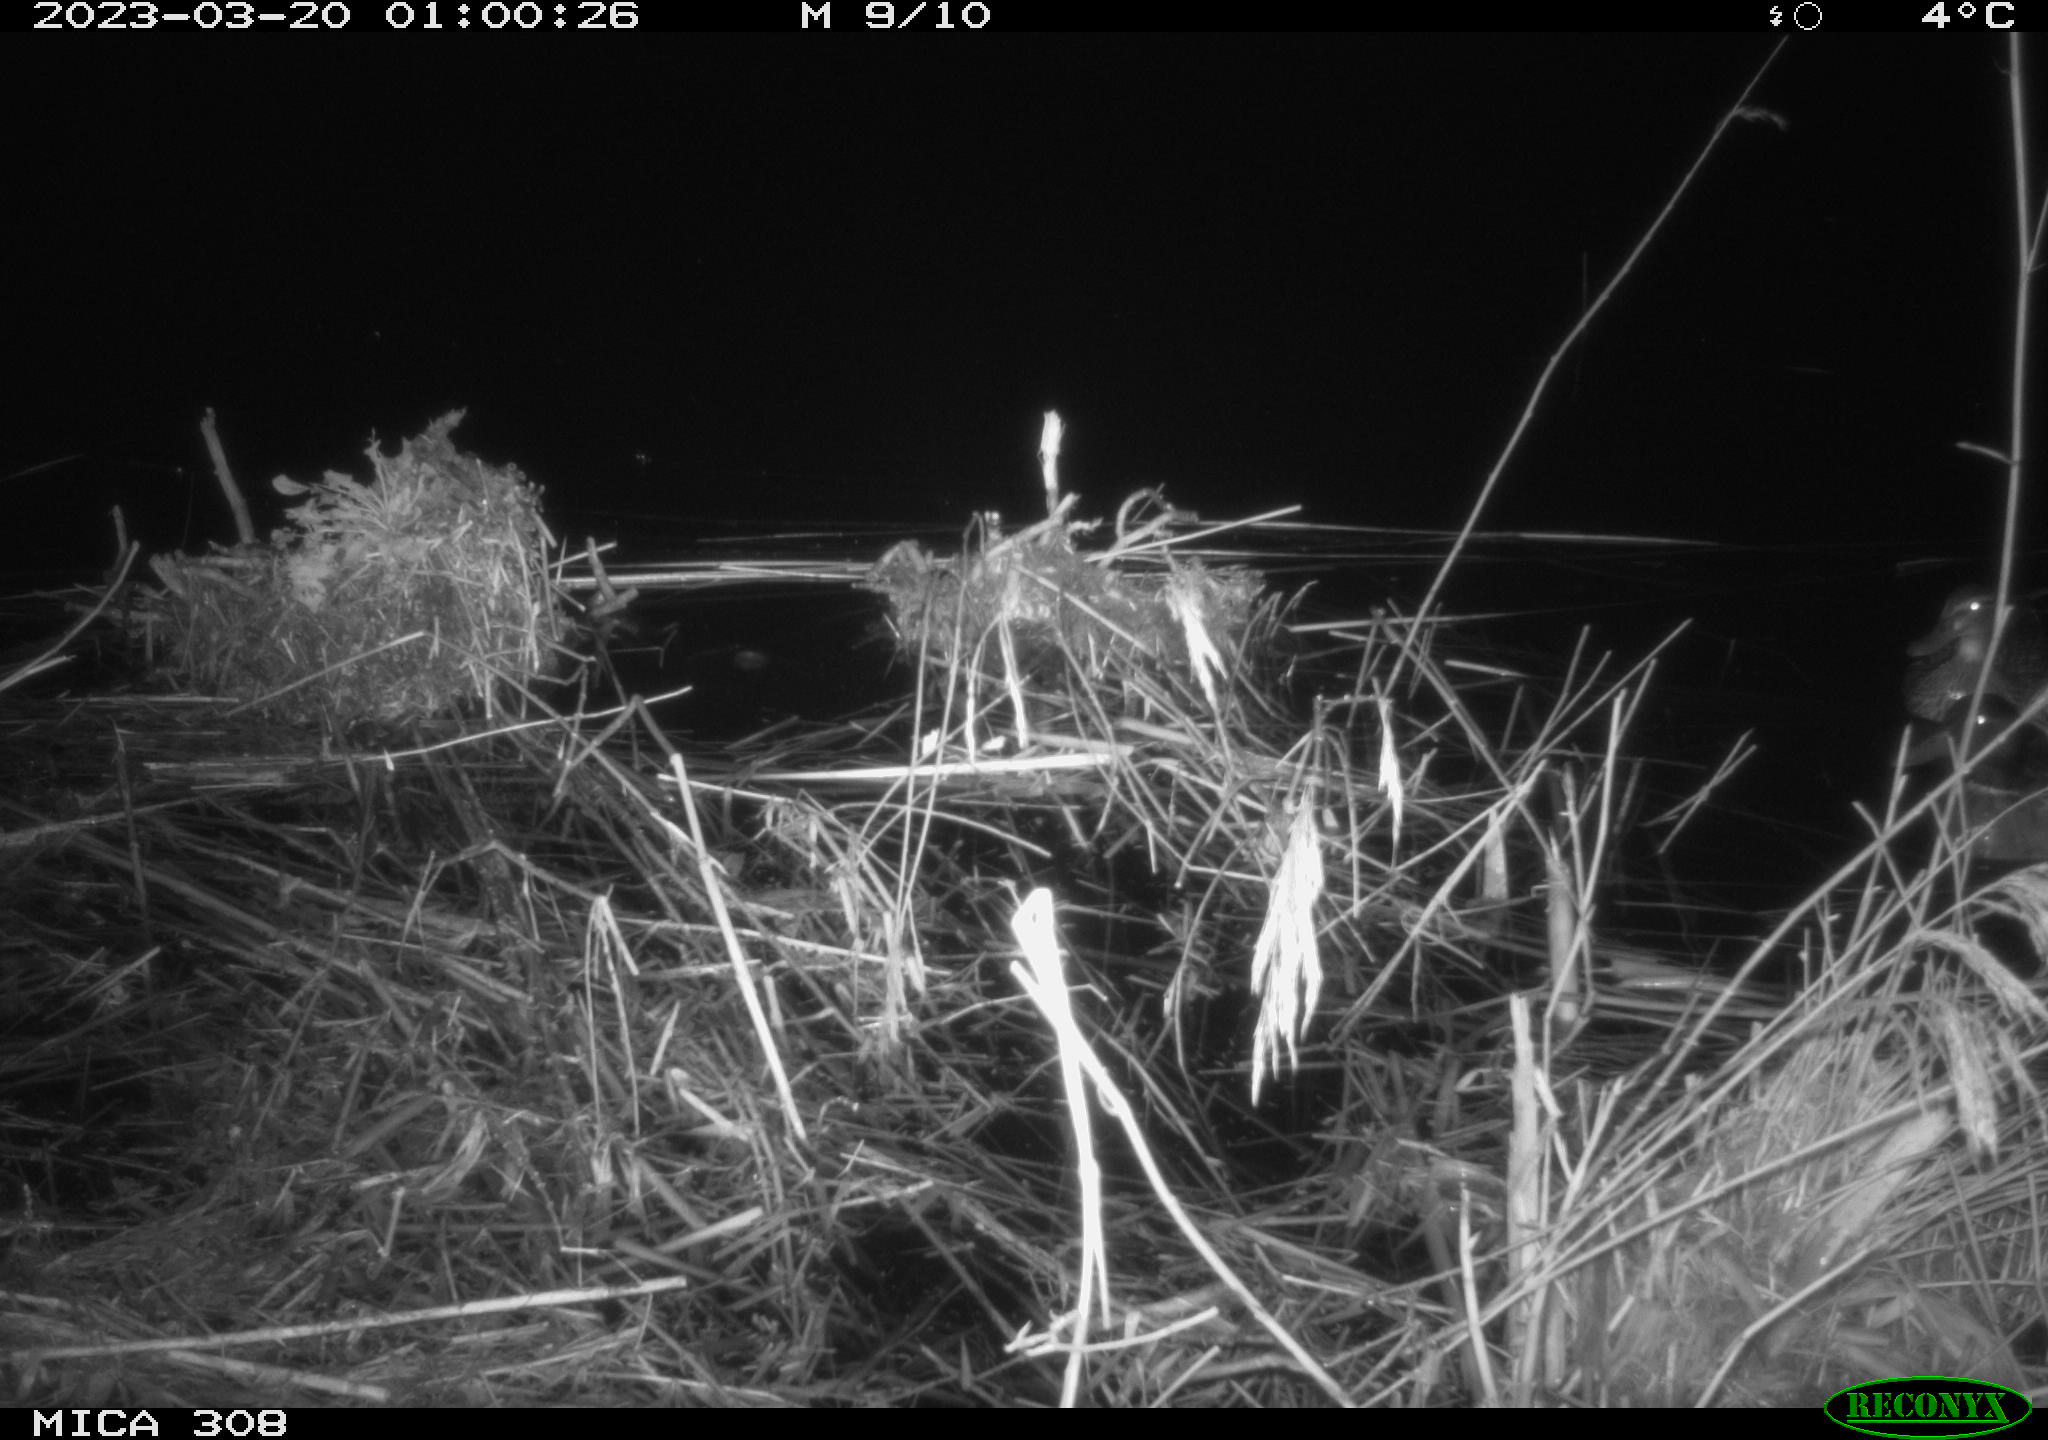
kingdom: Animalia
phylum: Chordata
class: Aves
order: Anseriformes
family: Anatidae
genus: Anas
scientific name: Anas
